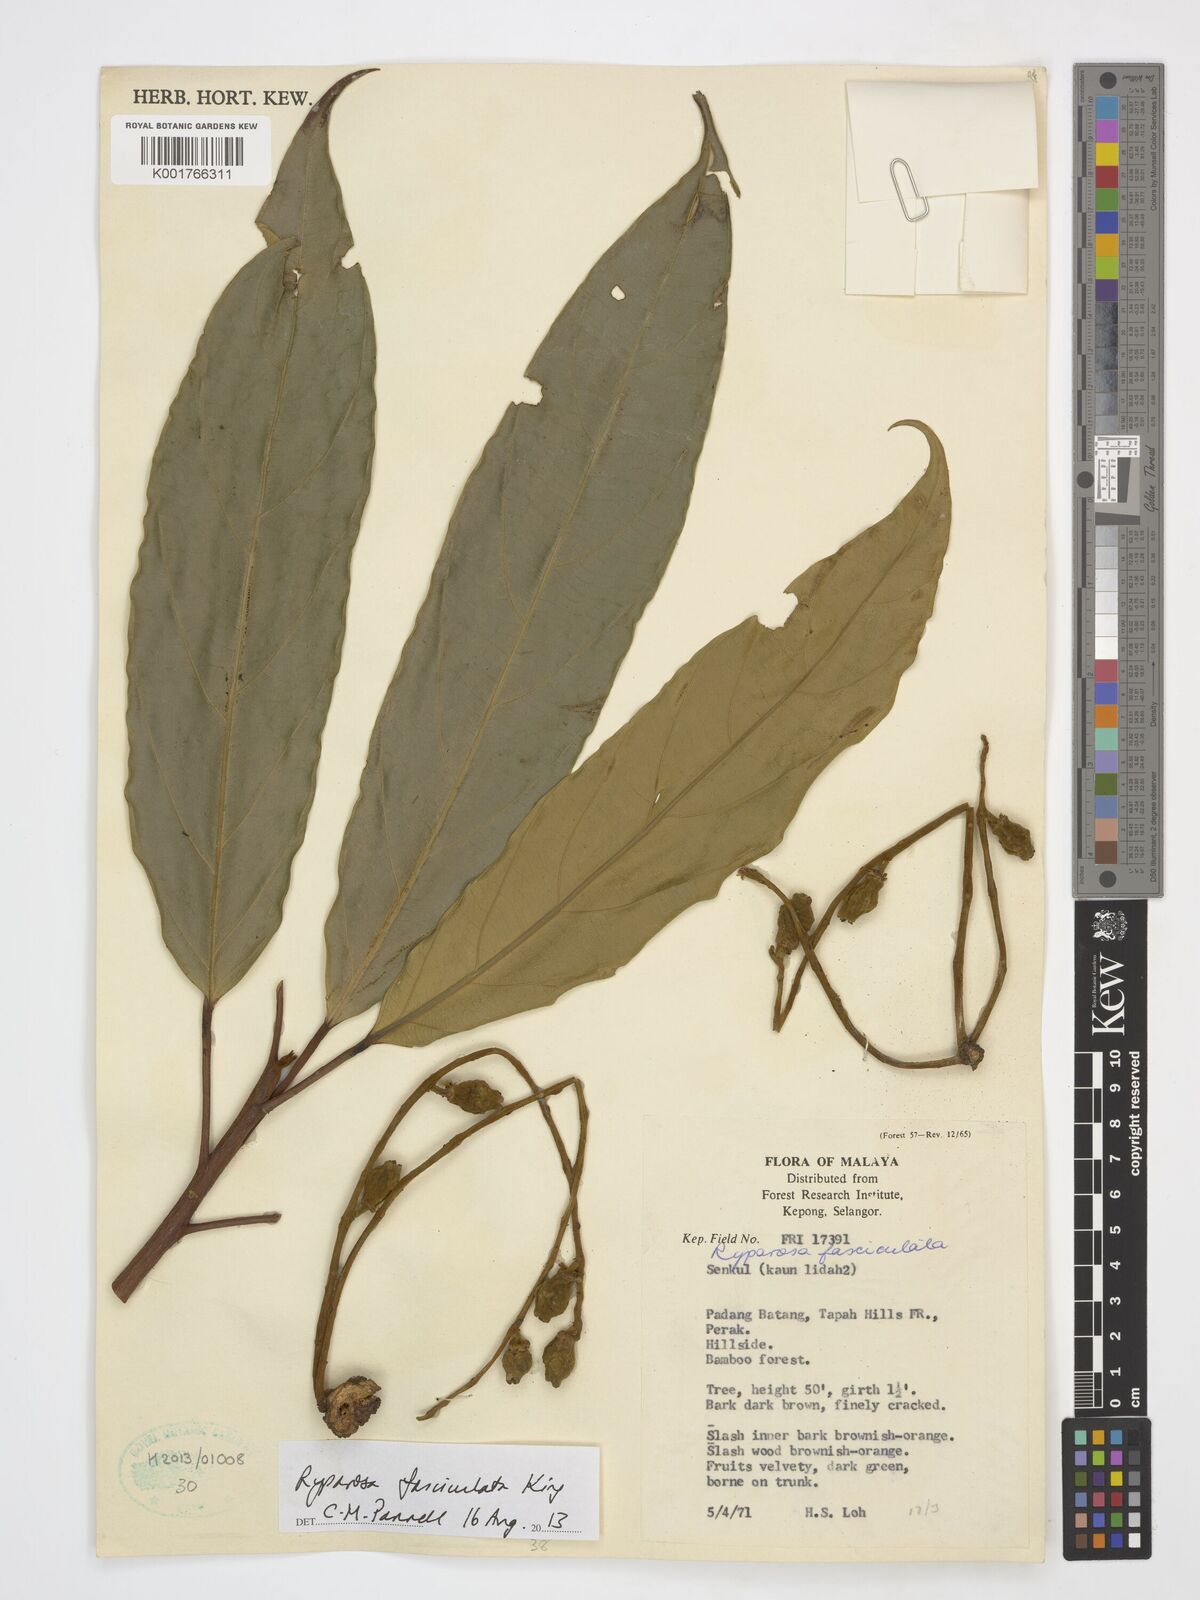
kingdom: Plantae
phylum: Tracheophyta
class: Magnoliopsida
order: Malpighiales
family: Achariaceae
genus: Ryparosa
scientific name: Ryparosa fasciculata
